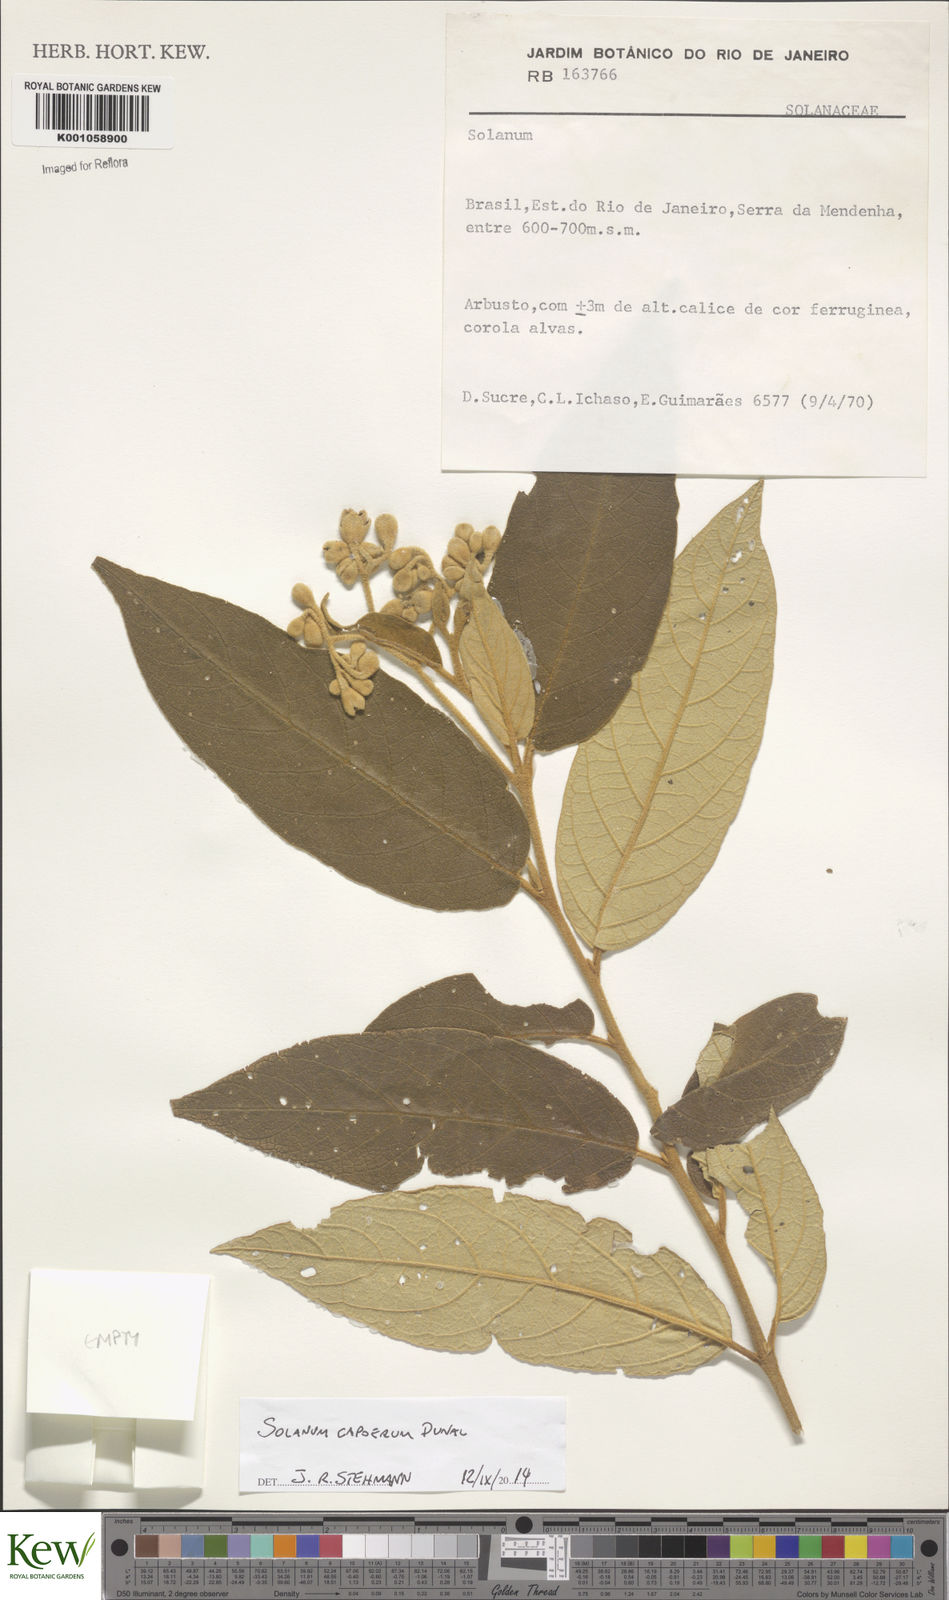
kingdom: Plantae
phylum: Tracheophyta
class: Magnoliopsida
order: Solanales
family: Solanaceae
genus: Solanum
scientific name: Solanum
